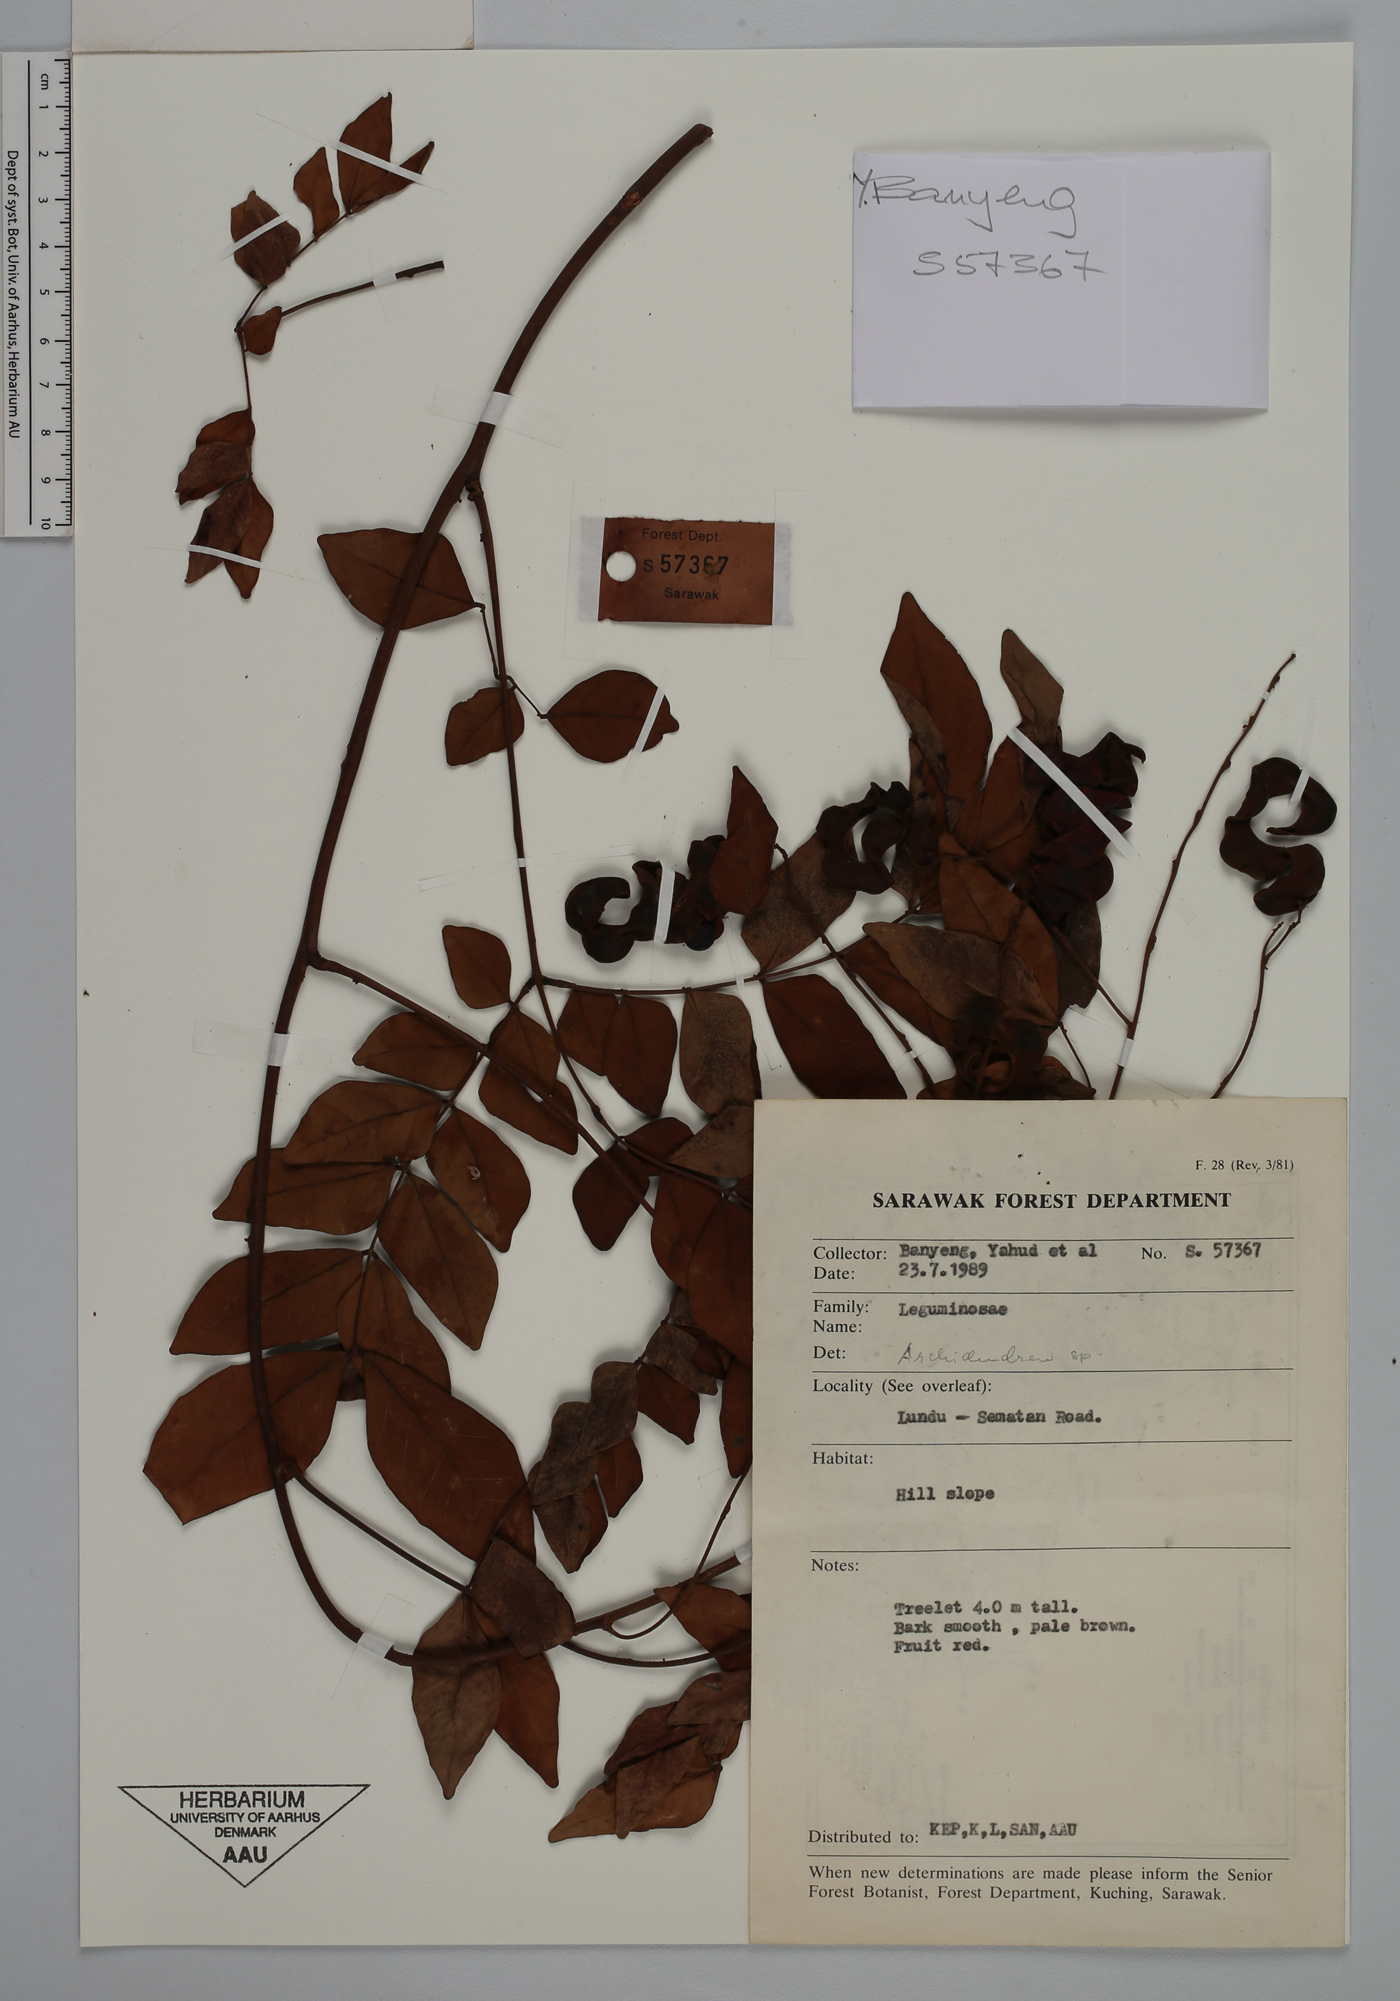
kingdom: Plantae
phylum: Tracheophyta
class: Magnoliopsida
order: Fabales
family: Fabaceae
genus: Archidendron
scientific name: Archidendron
